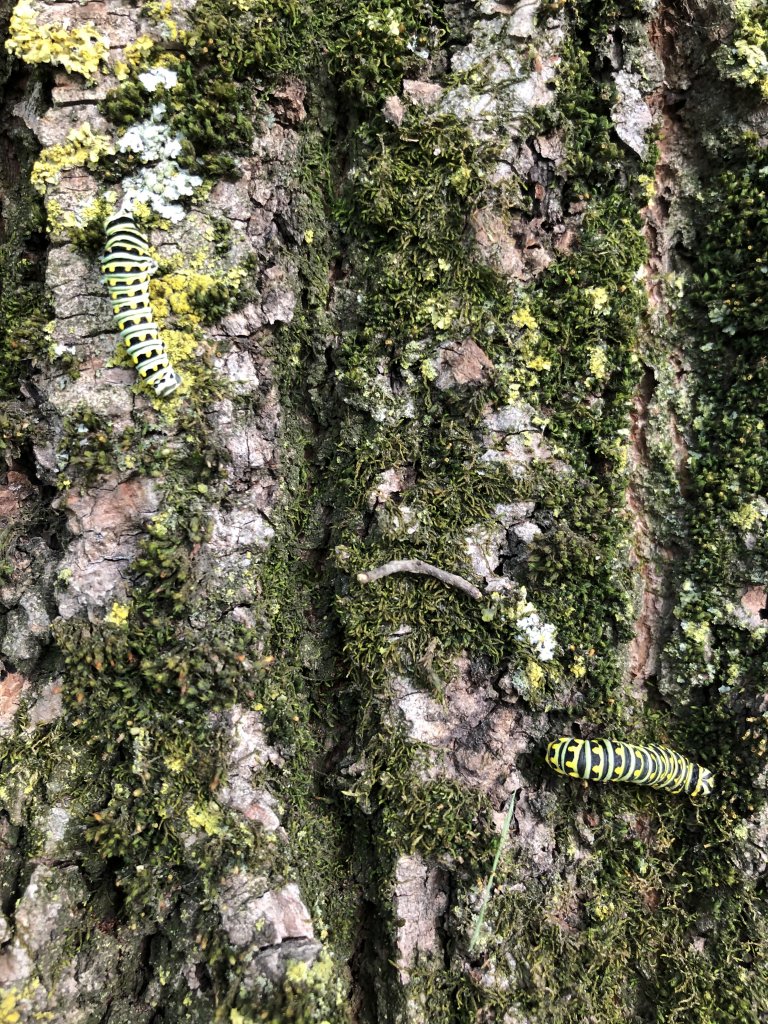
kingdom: Animalia
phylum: Arthropoda
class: Insecta
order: Lepidoptera
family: Papilionidae
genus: Papilio
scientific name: Papilio polyxenes
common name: Black Swallowtail
